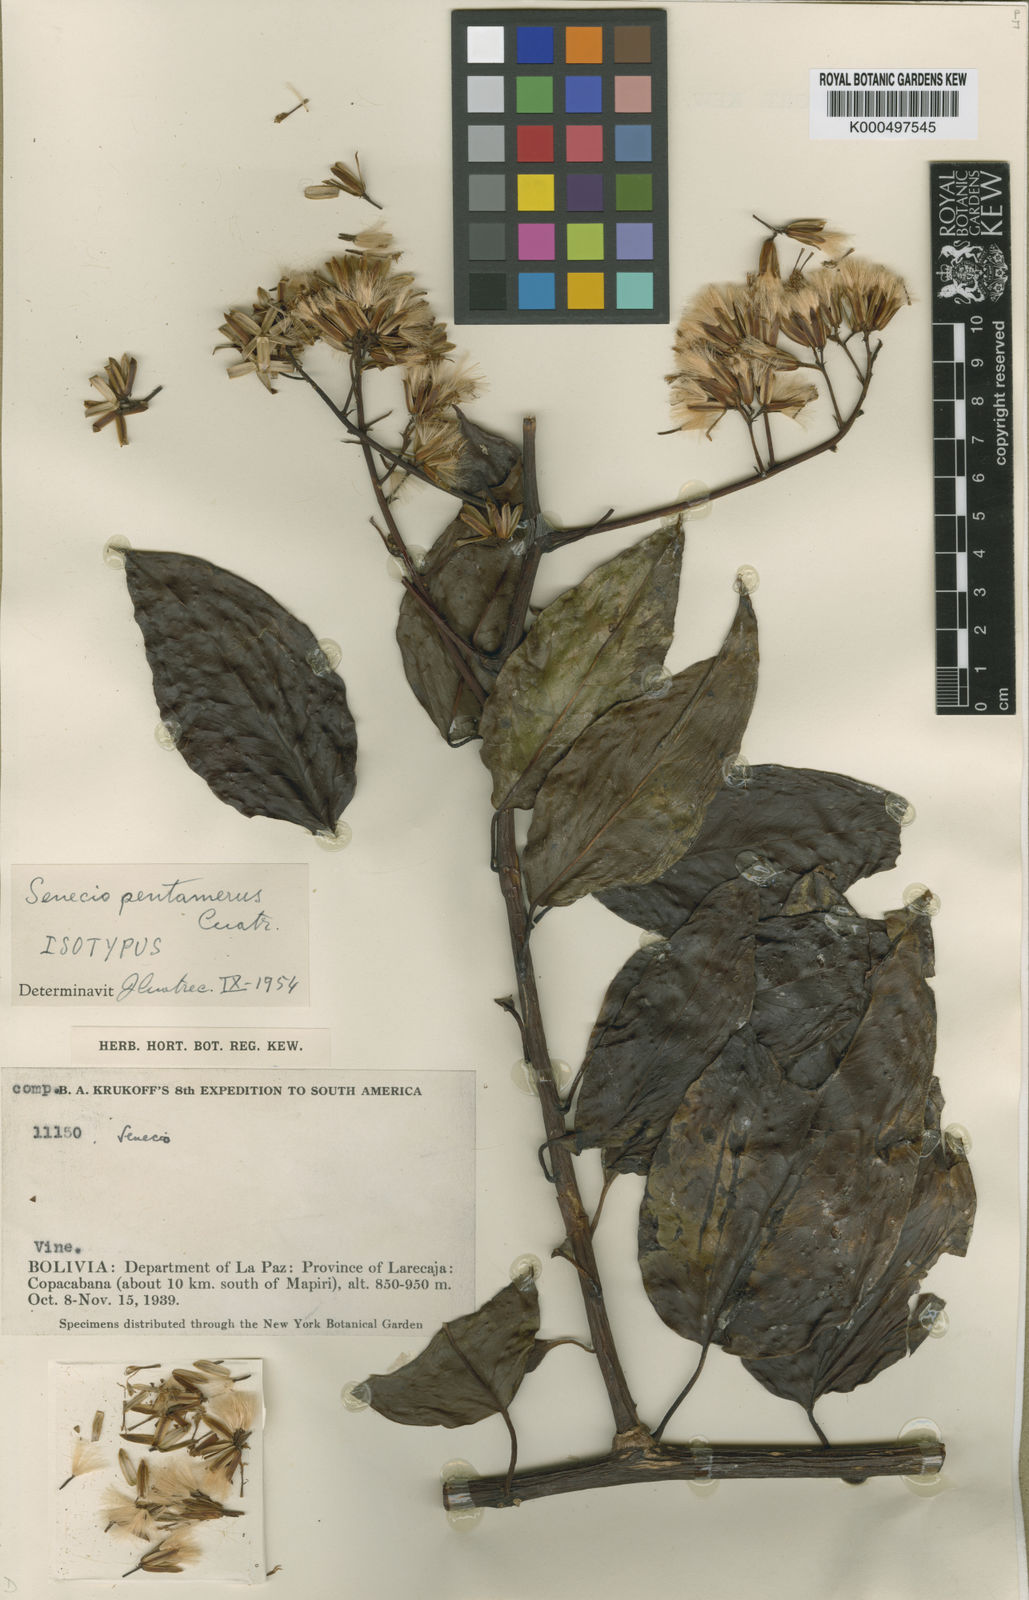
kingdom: Plantae
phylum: Tracheophyta
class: Magnoliopsida
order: Asterales
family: Asteraceae
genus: Paracalia
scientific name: Paracalia pentamera
